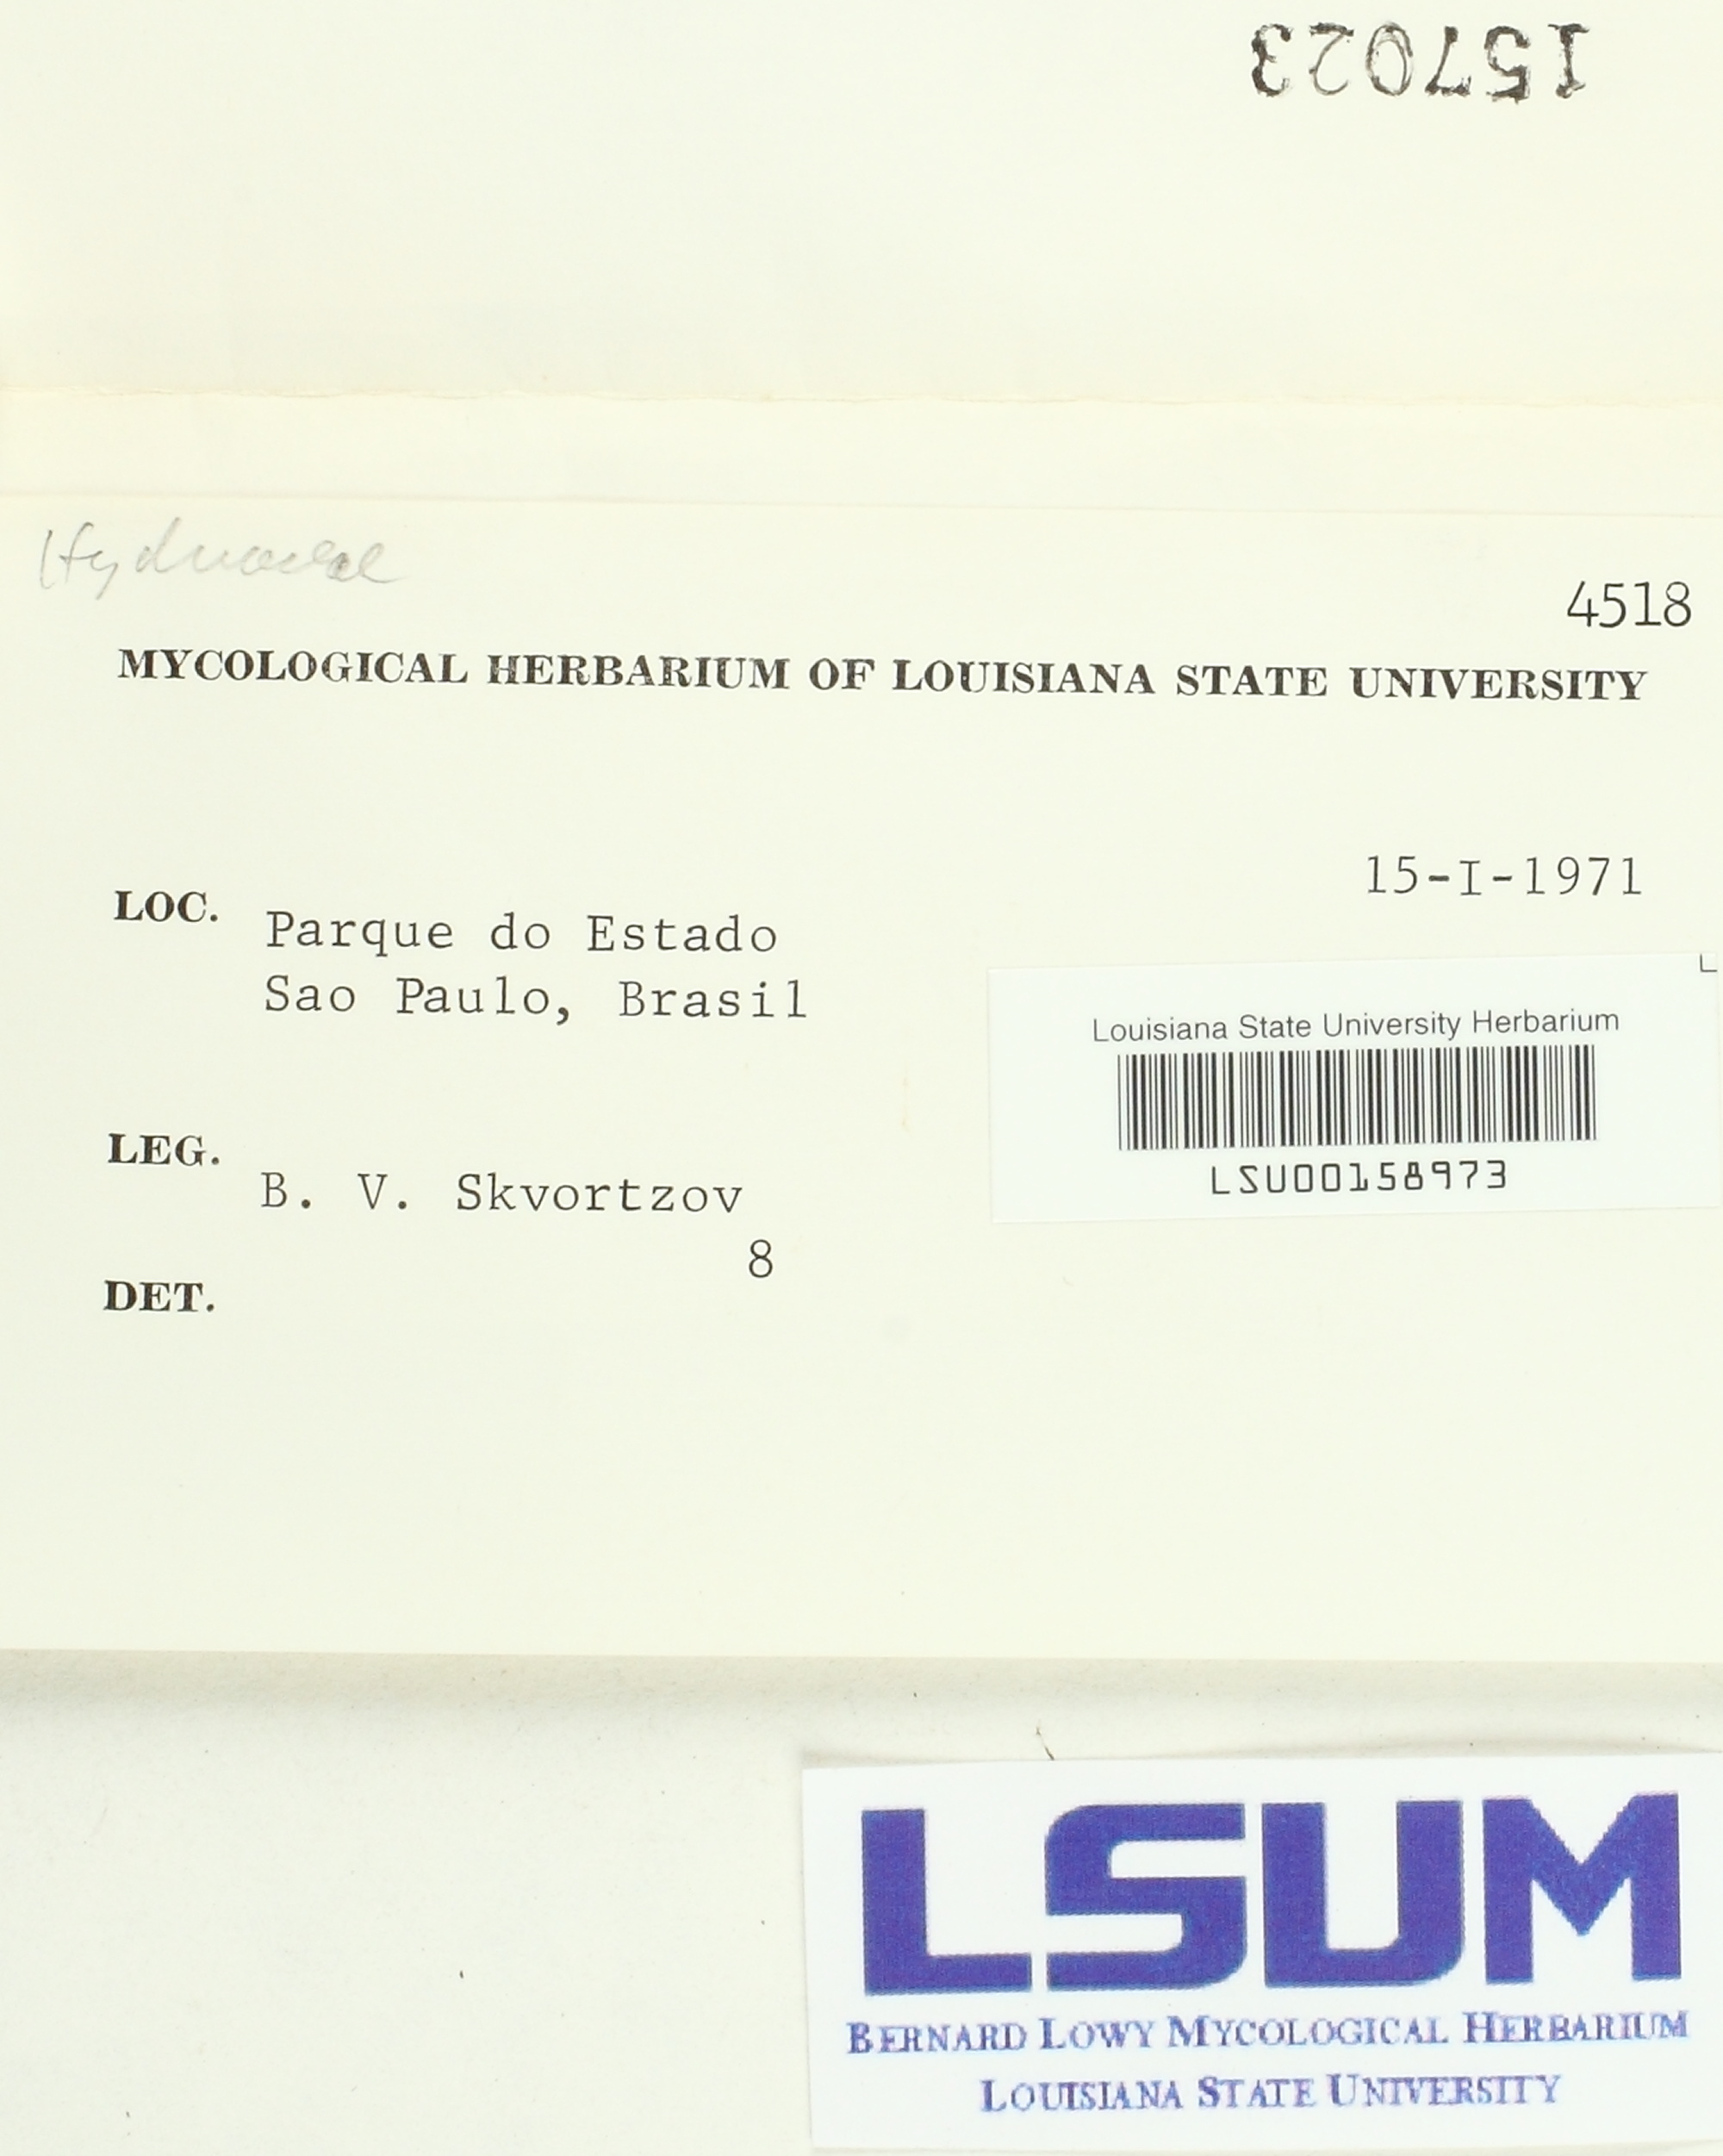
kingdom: Fungi
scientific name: Fungi
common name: Fungi
